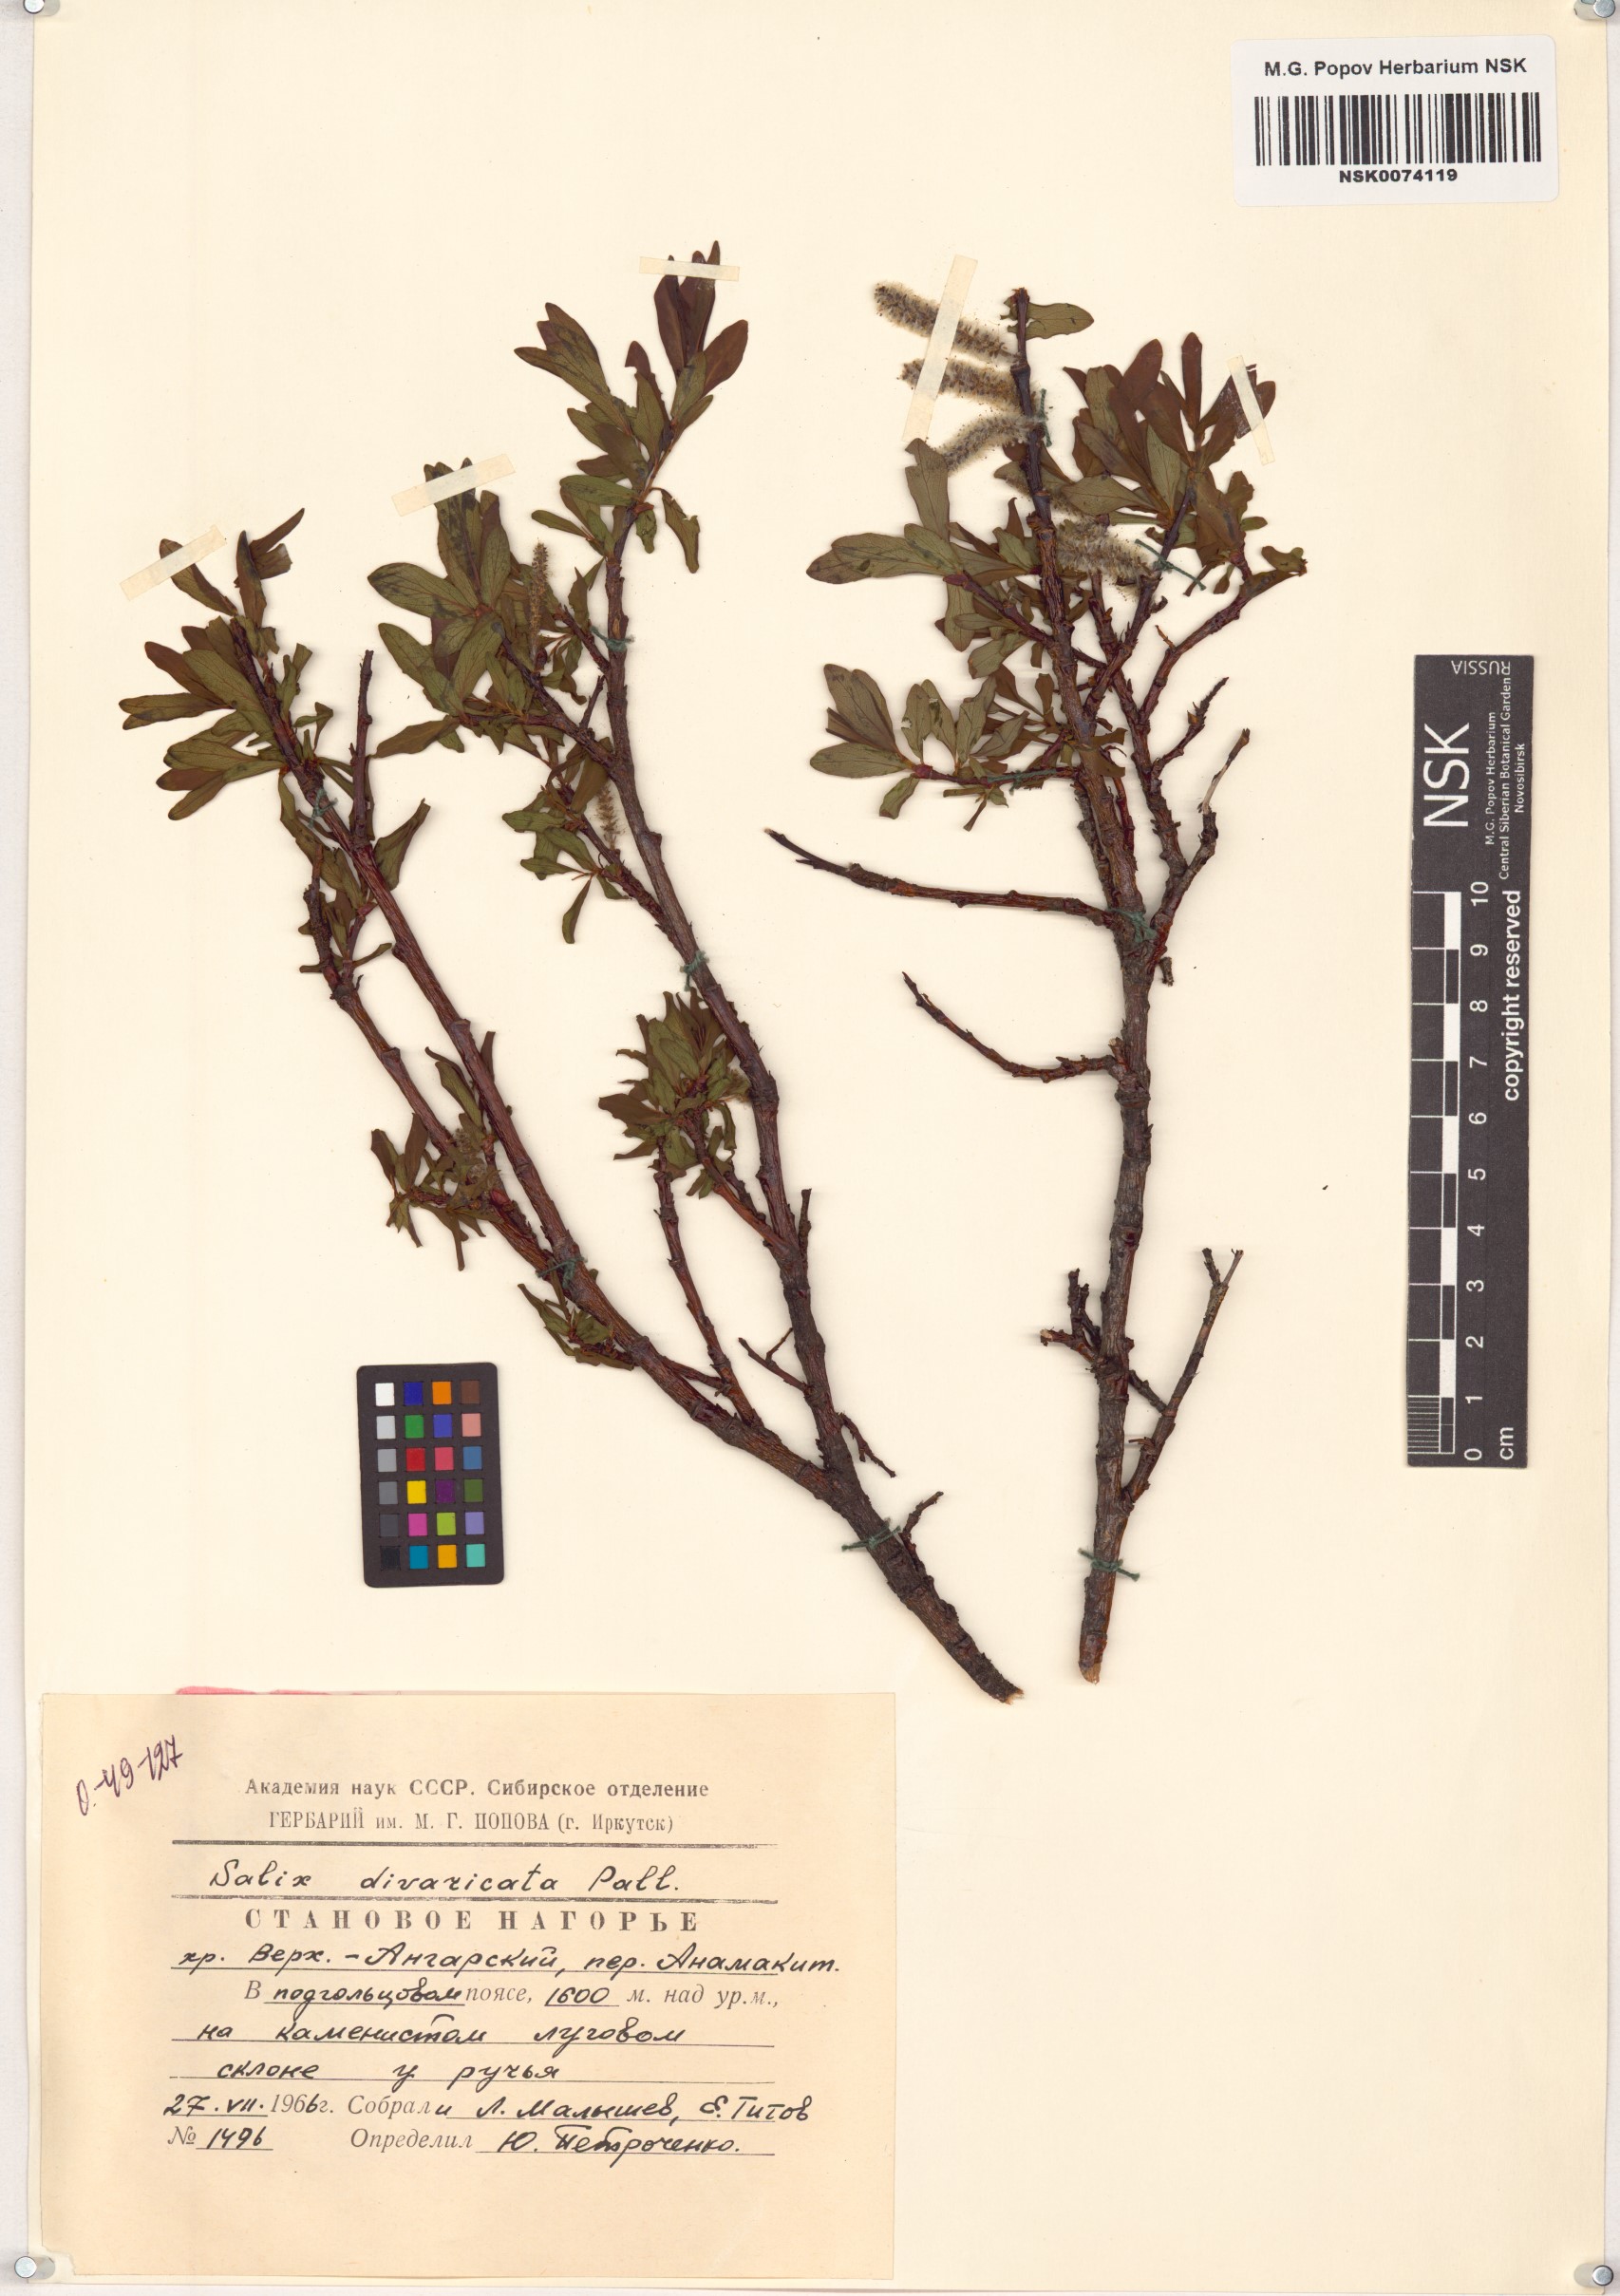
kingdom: Plantae
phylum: Tracheophyta
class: Magnoliopsida
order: Malpighiales
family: Salicaceae
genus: Salix
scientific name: Salix divaricata
